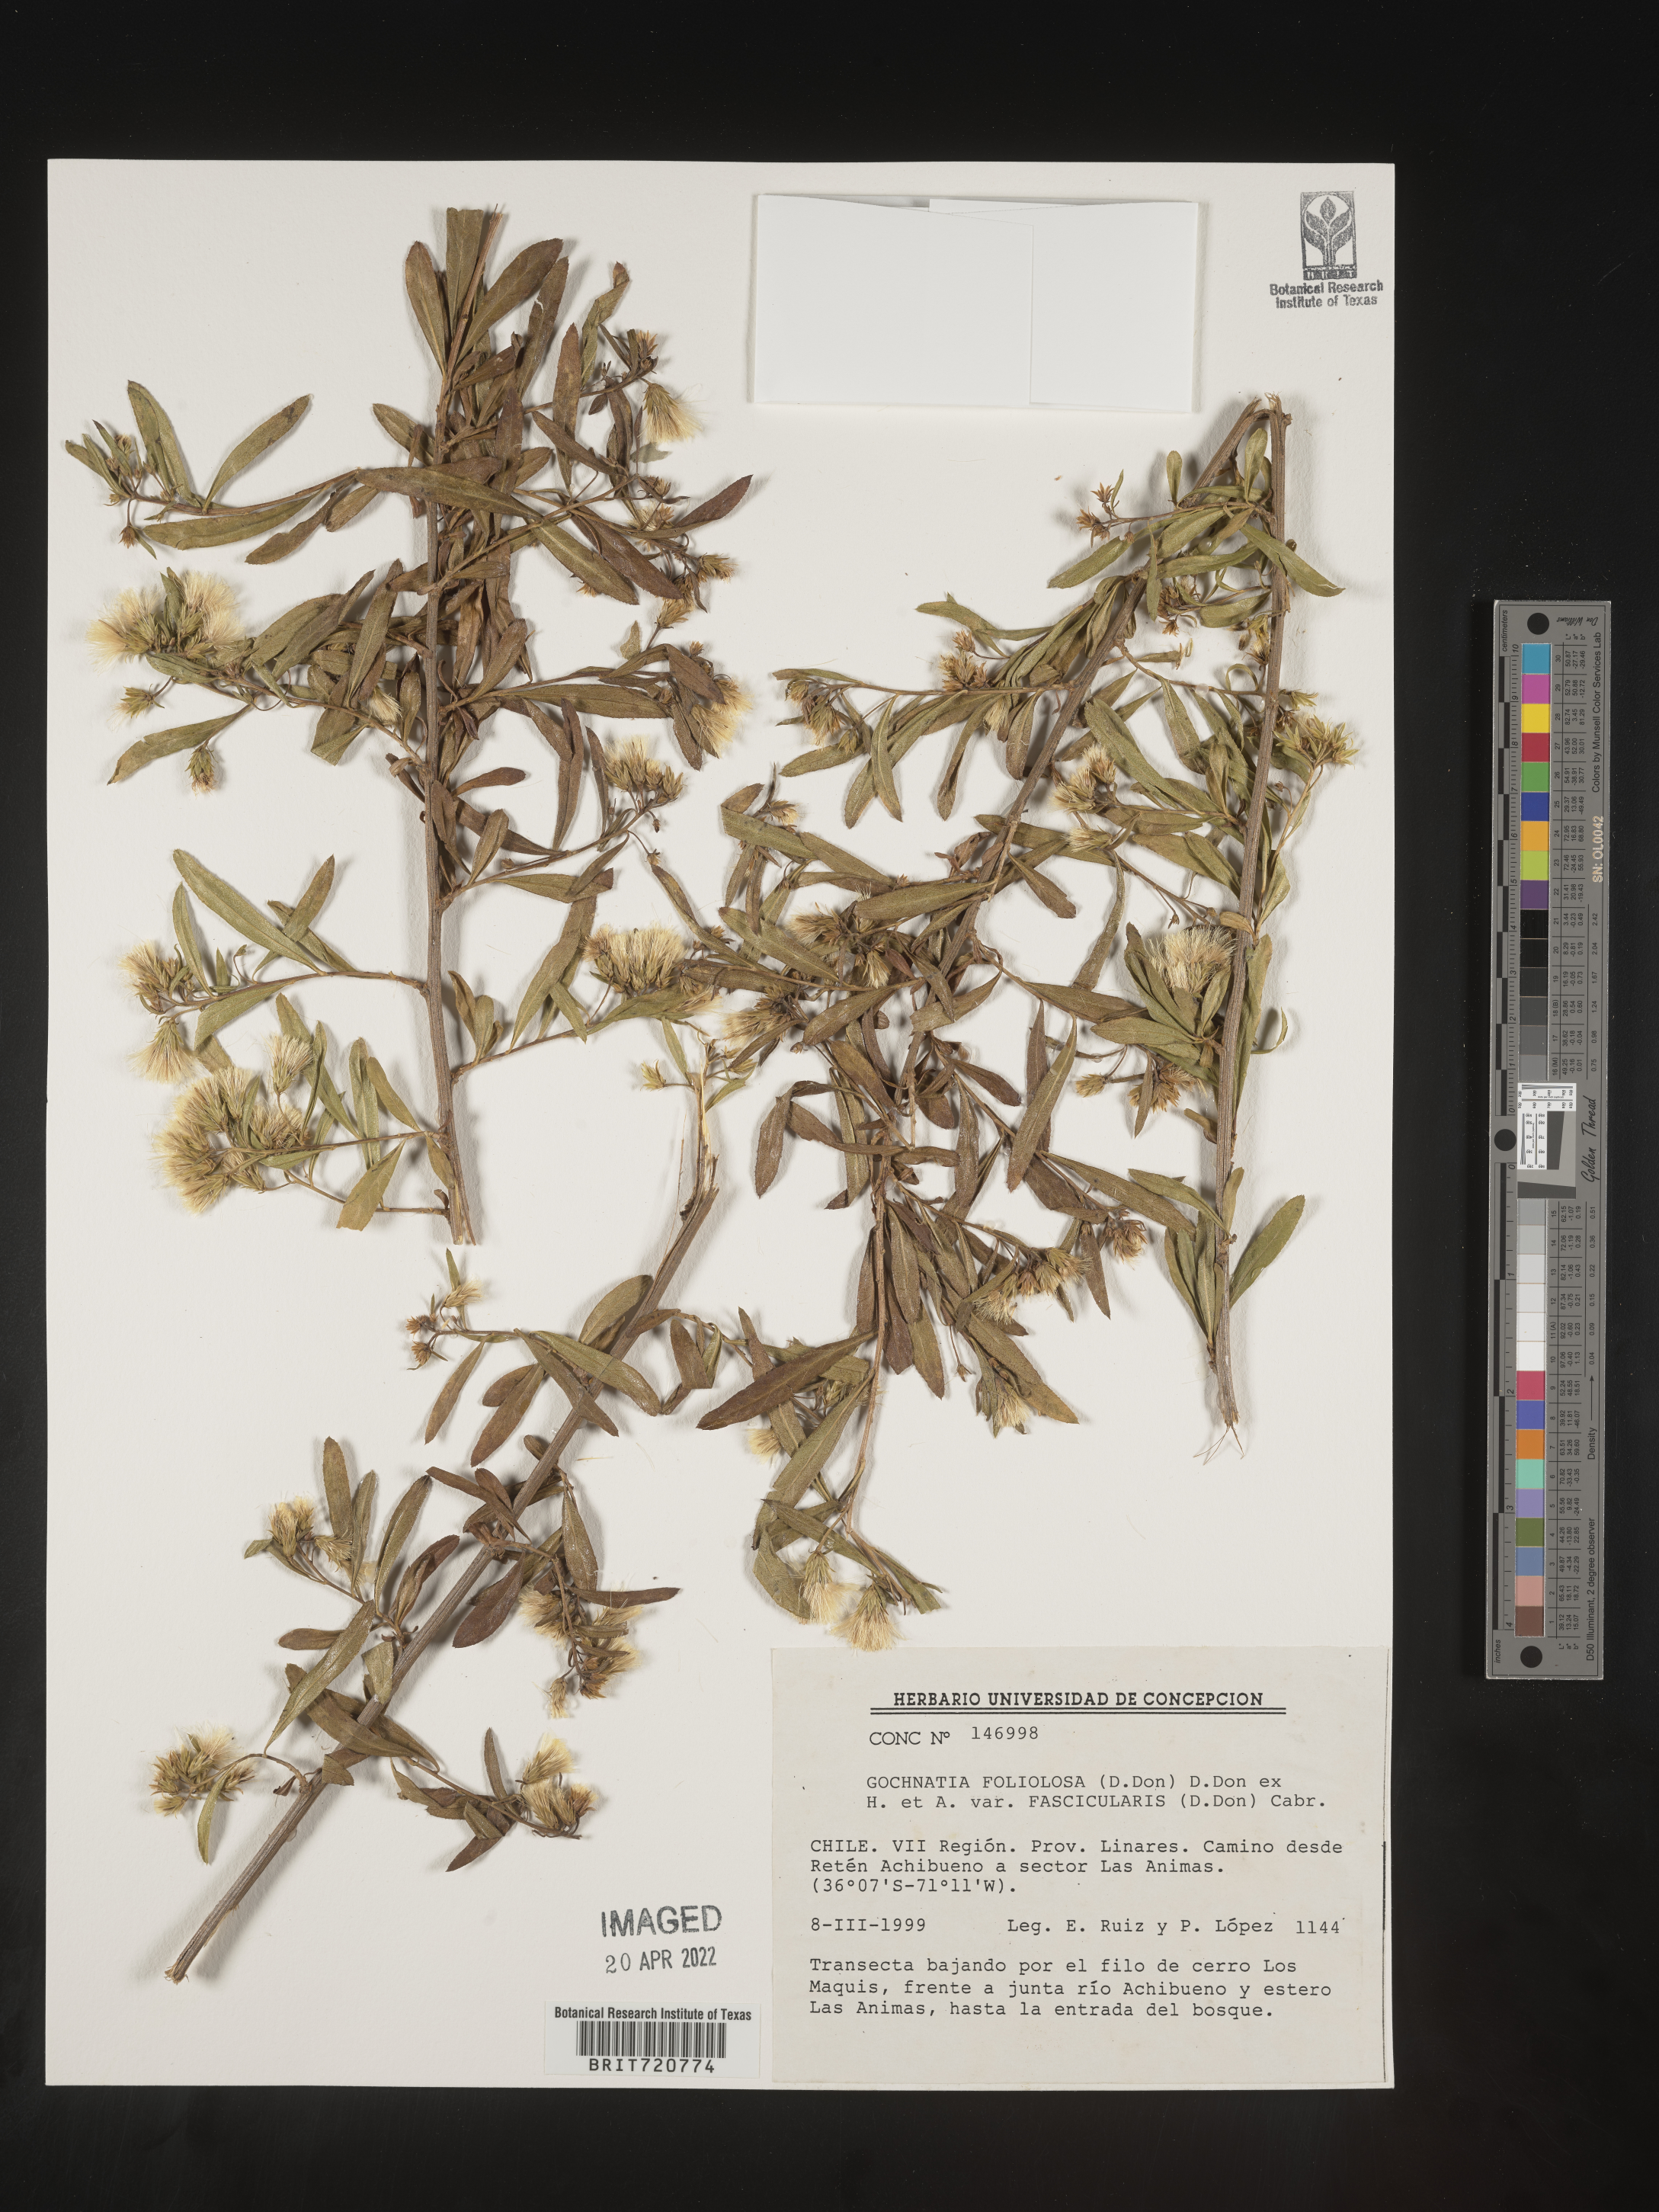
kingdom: Plantae
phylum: Tracheophyta
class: Magnoliopsida
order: Asterales
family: Asteraceae
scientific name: Asteraceae
